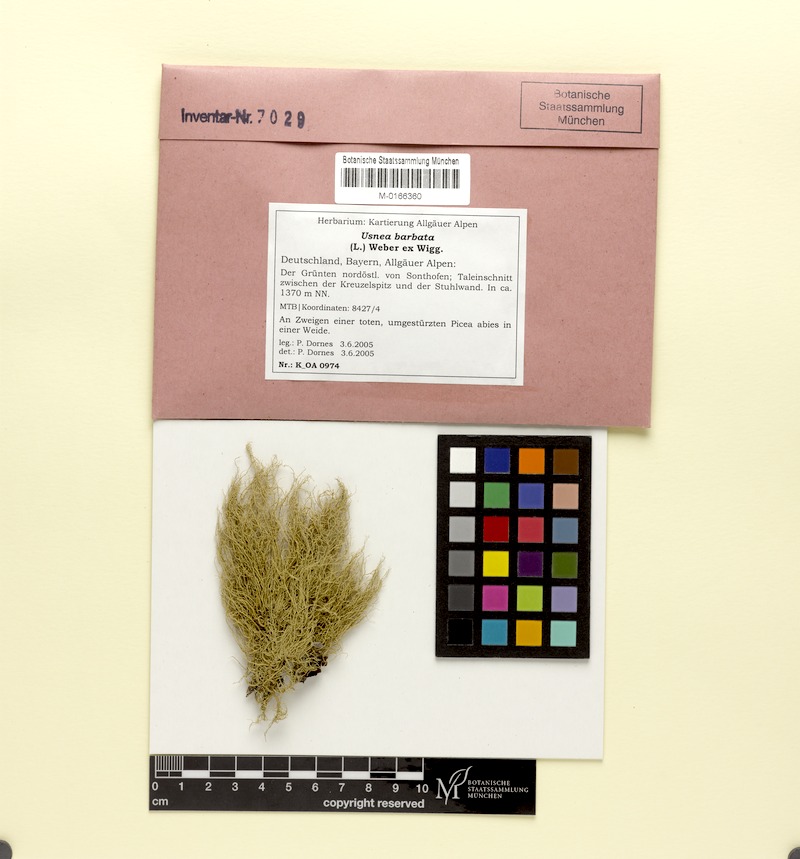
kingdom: Fungi
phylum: Ascomycota
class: Lecanoromycetes
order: Lecanorales
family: Parmeliaceae
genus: Usnea
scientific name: Usnea barbata
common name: Old man's beard lichen
